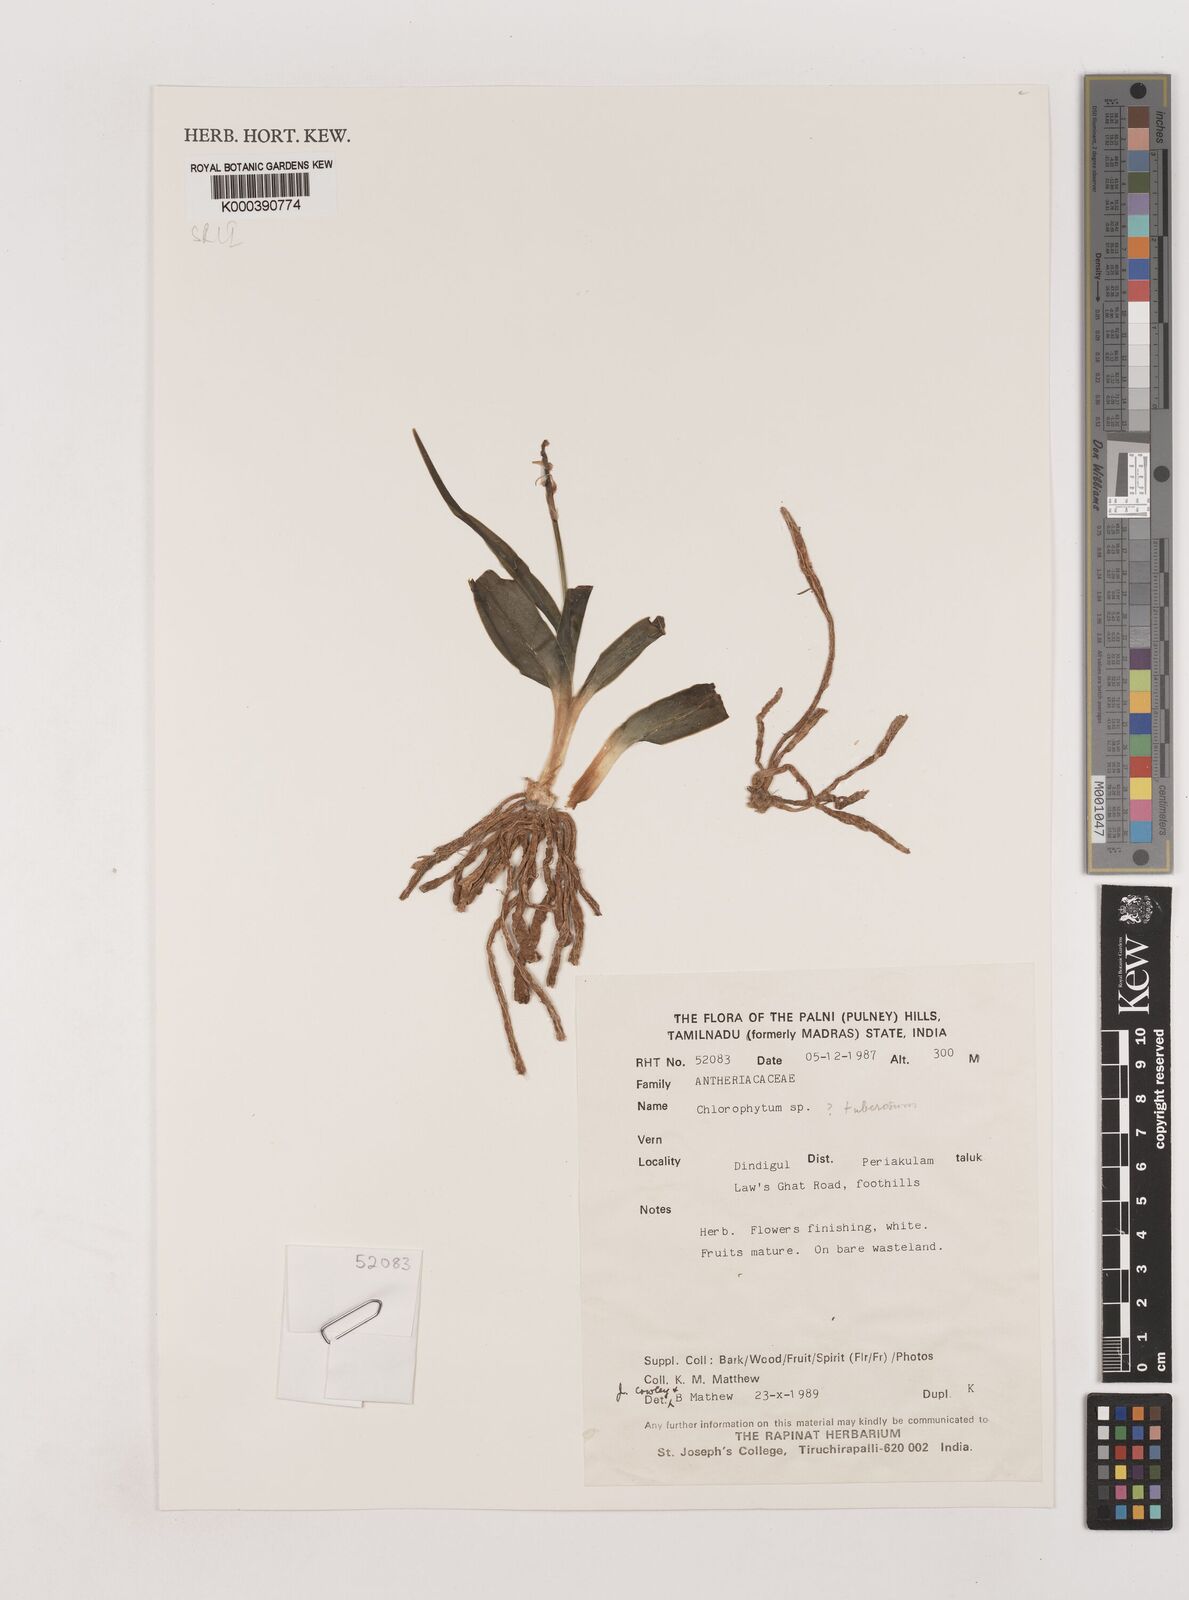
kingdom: Plantae
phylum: Tracheophyta
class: Liliopsida
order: Asparagales
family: Asparagaceae
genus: Chlorophytum
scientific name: Chlorophytum tuberosum
